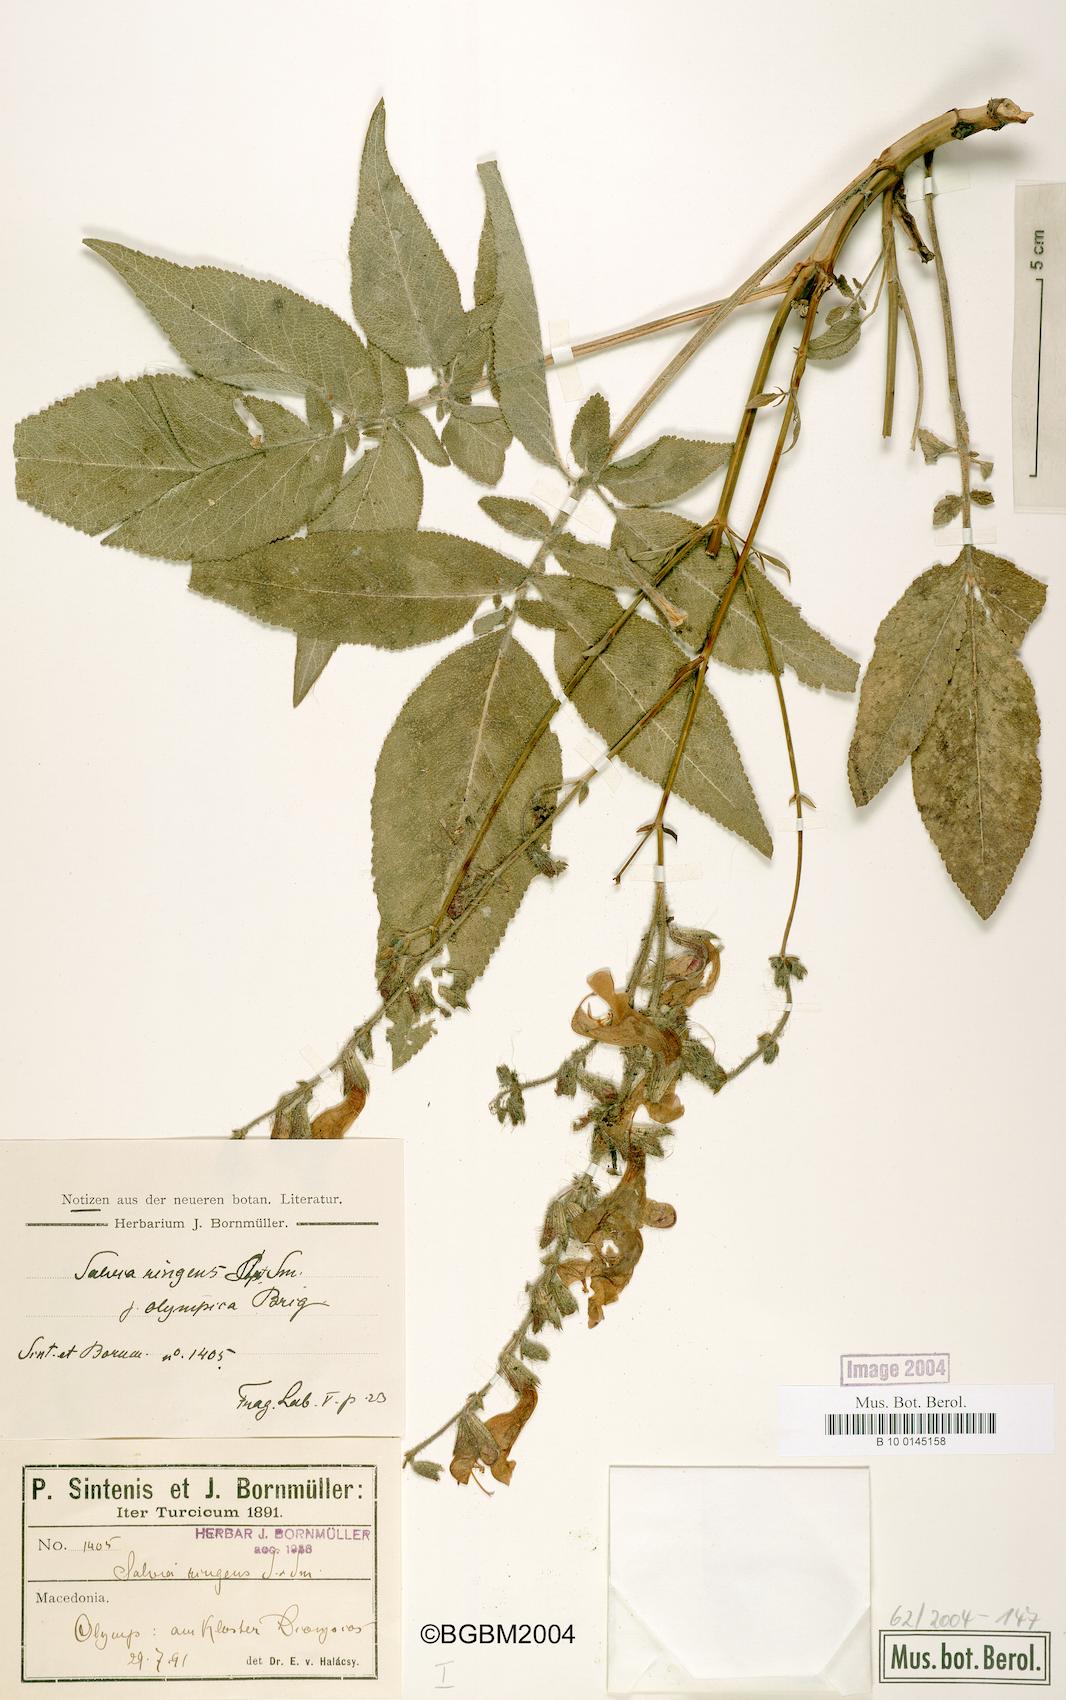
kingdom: Plantae
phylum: Tracheophyta
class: Magnoliopsida
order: Lamiales
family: Lamiaceae
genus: Salvia
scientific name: Salvia ringens
